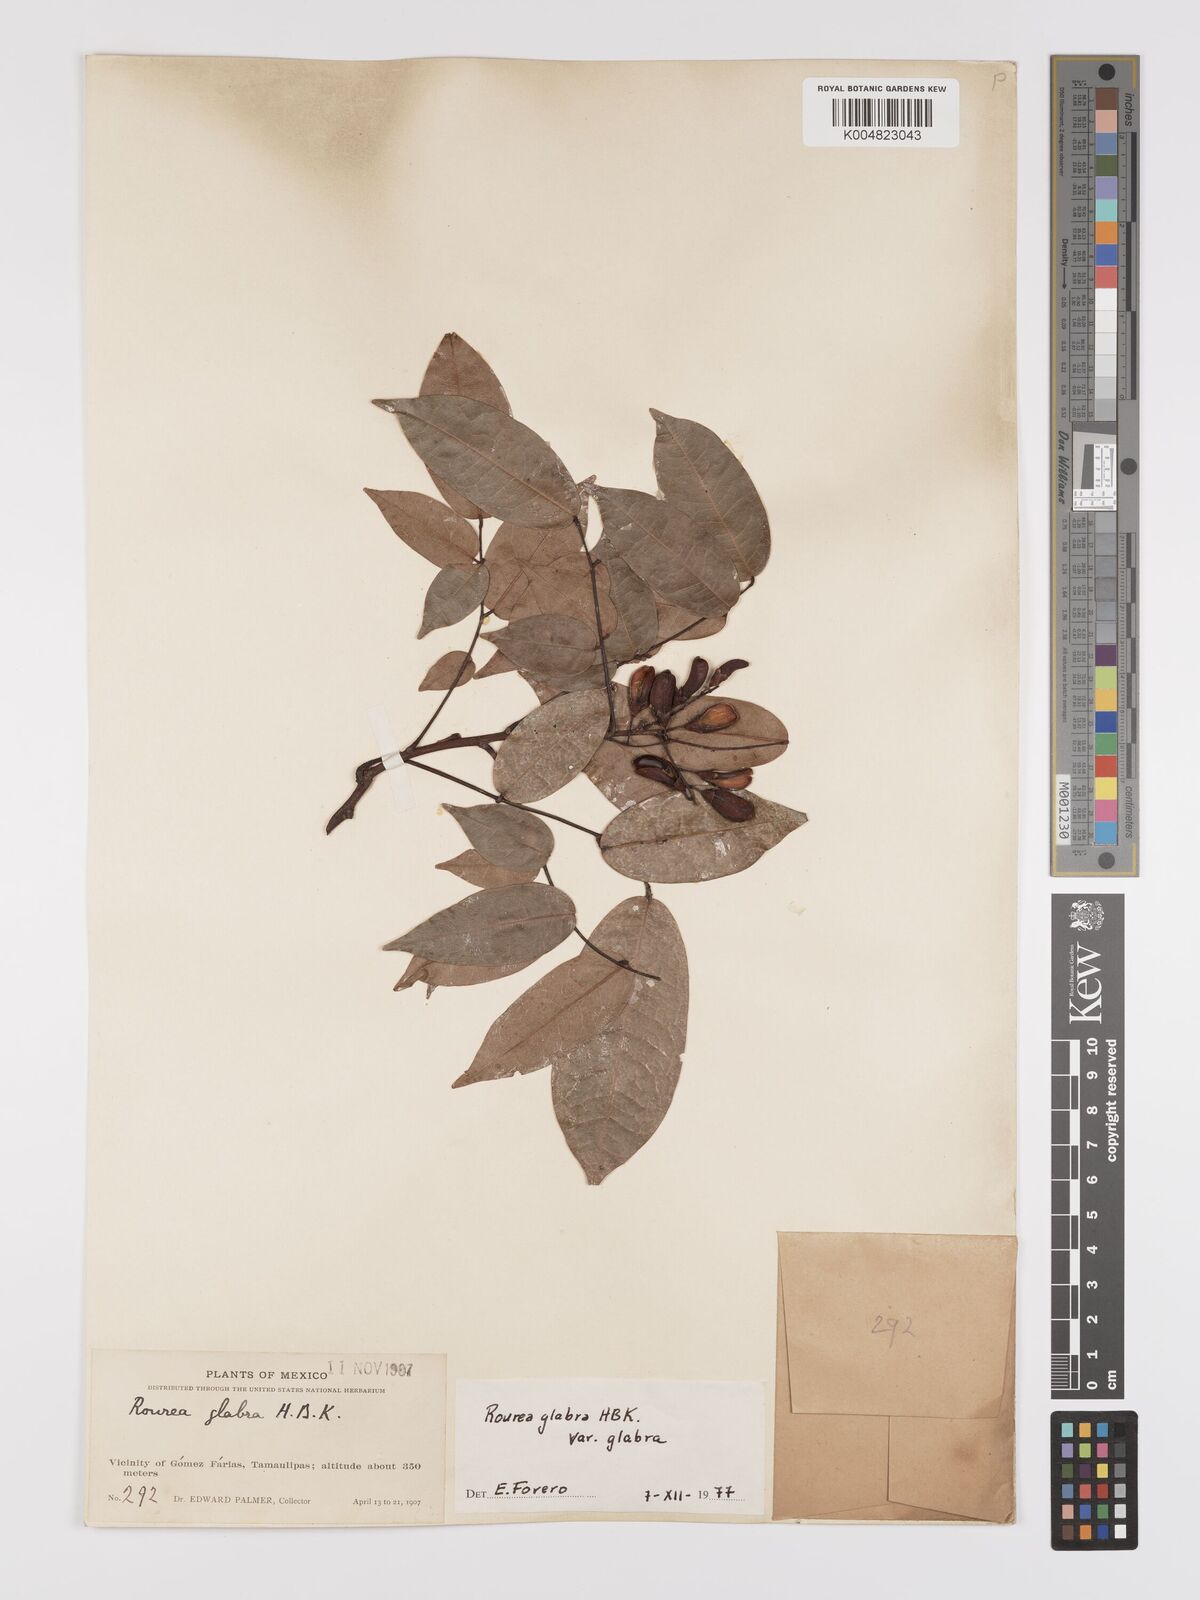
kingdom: Plantae
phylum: Tracheophyta
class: Magnoliopsida
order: Oxalidales
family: Connaraceae
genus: Rourea
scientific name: Rourea glabra
